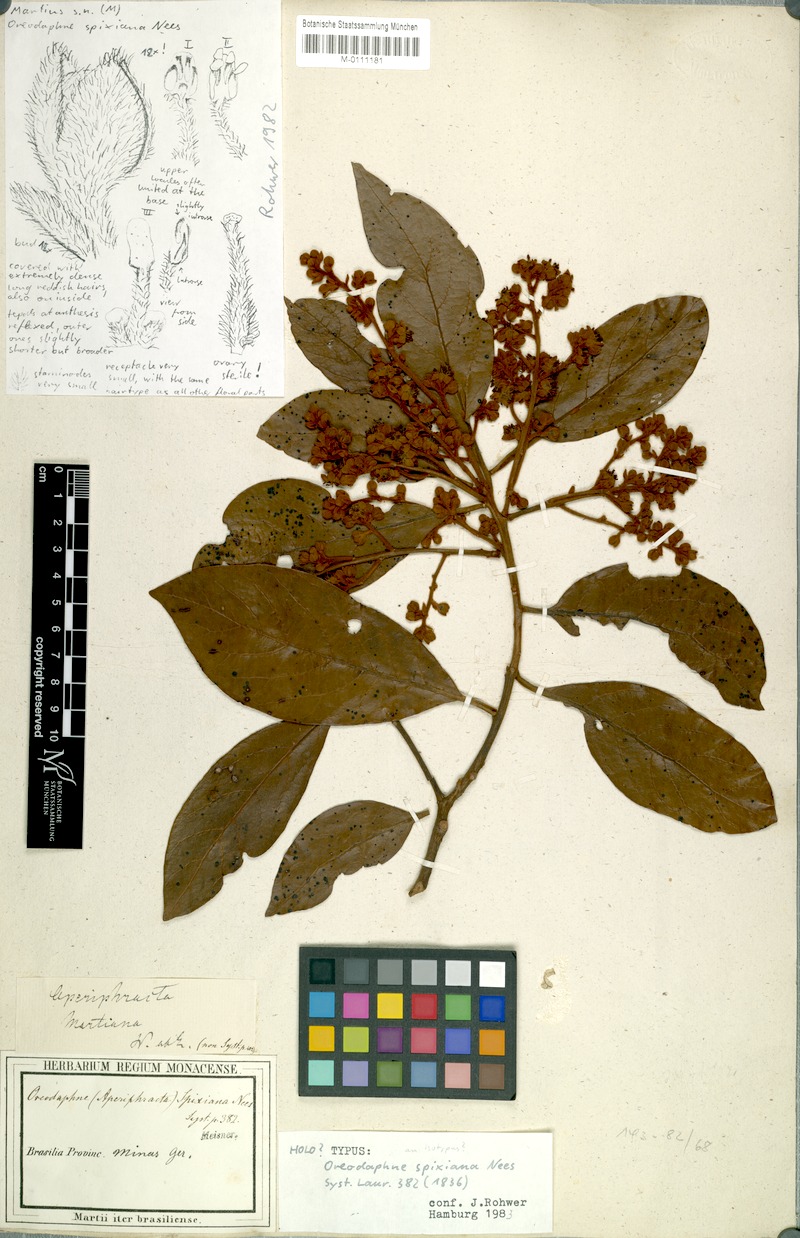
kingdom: Plantae
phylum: Tracheophyta
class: Magnoliopsida
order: Laurales
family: Lauraceae
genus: Ocotea
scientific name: Ocotea spixiana
